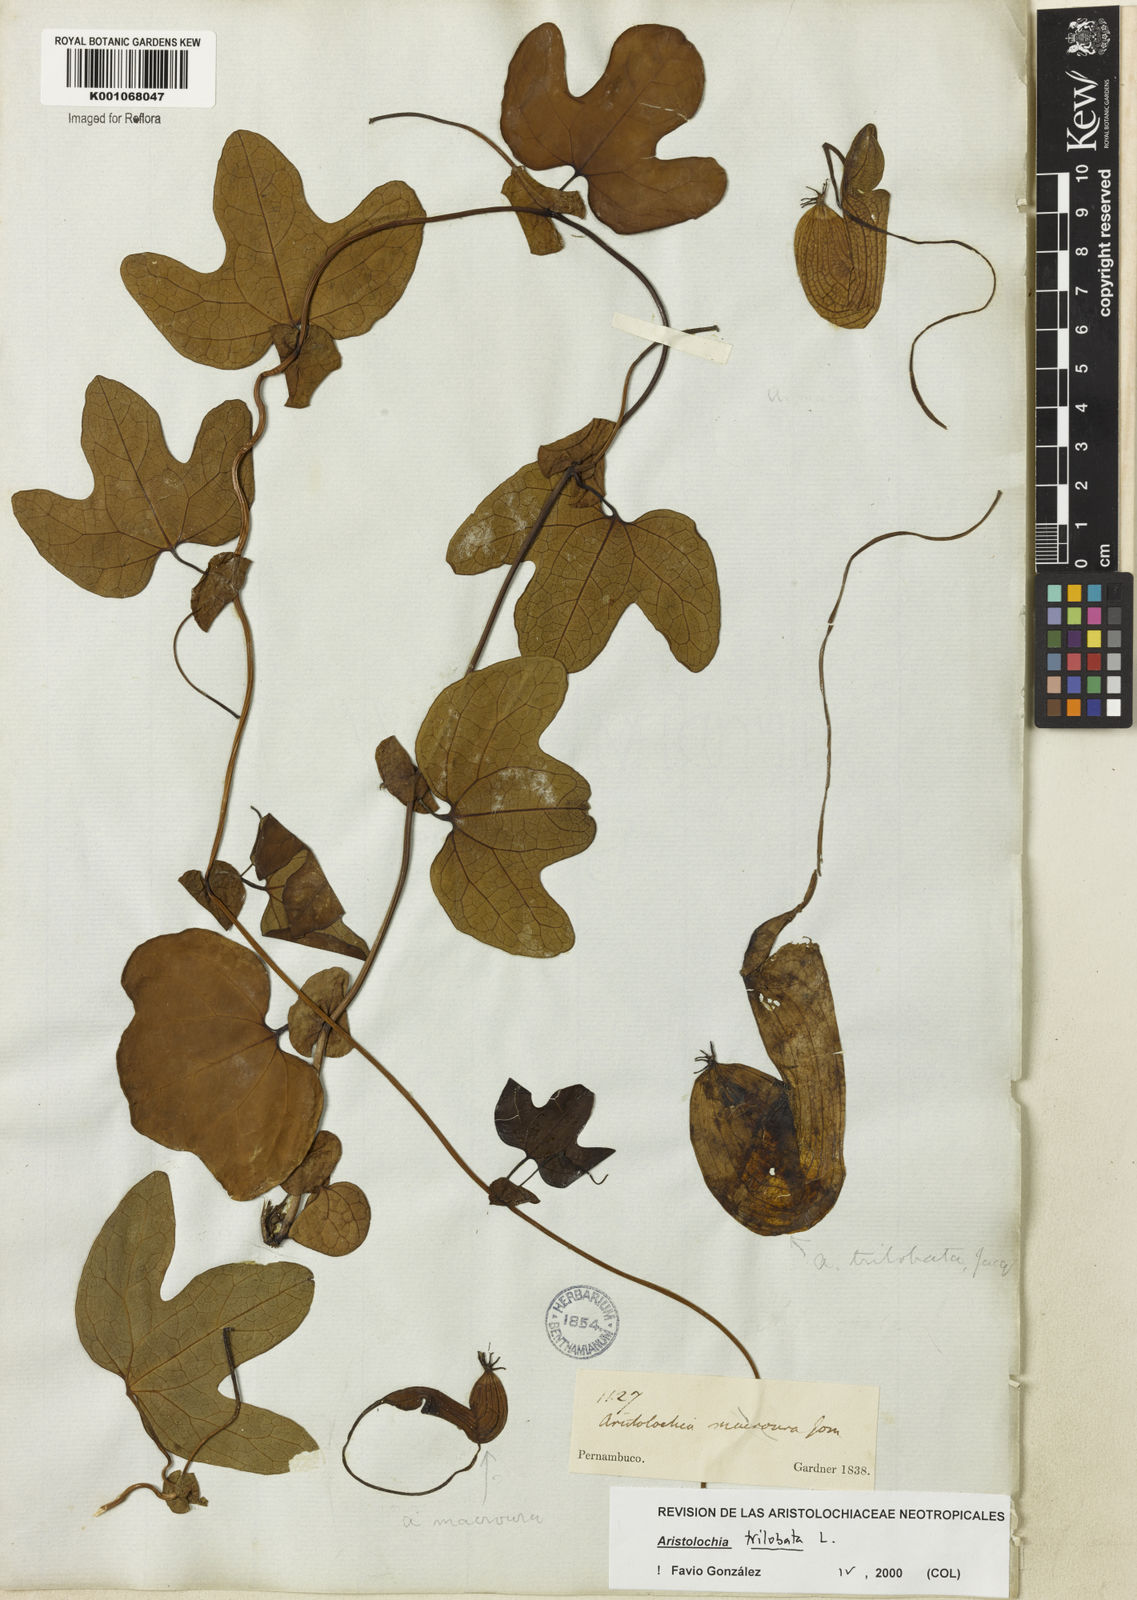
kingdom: Plantae
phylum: Tracheophyta
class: Magnoliopsida
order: Piperales
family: Aristolochiaceae
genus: Aristolochia
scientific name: Aristolochia trilobata
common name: Dutchman's pipe
